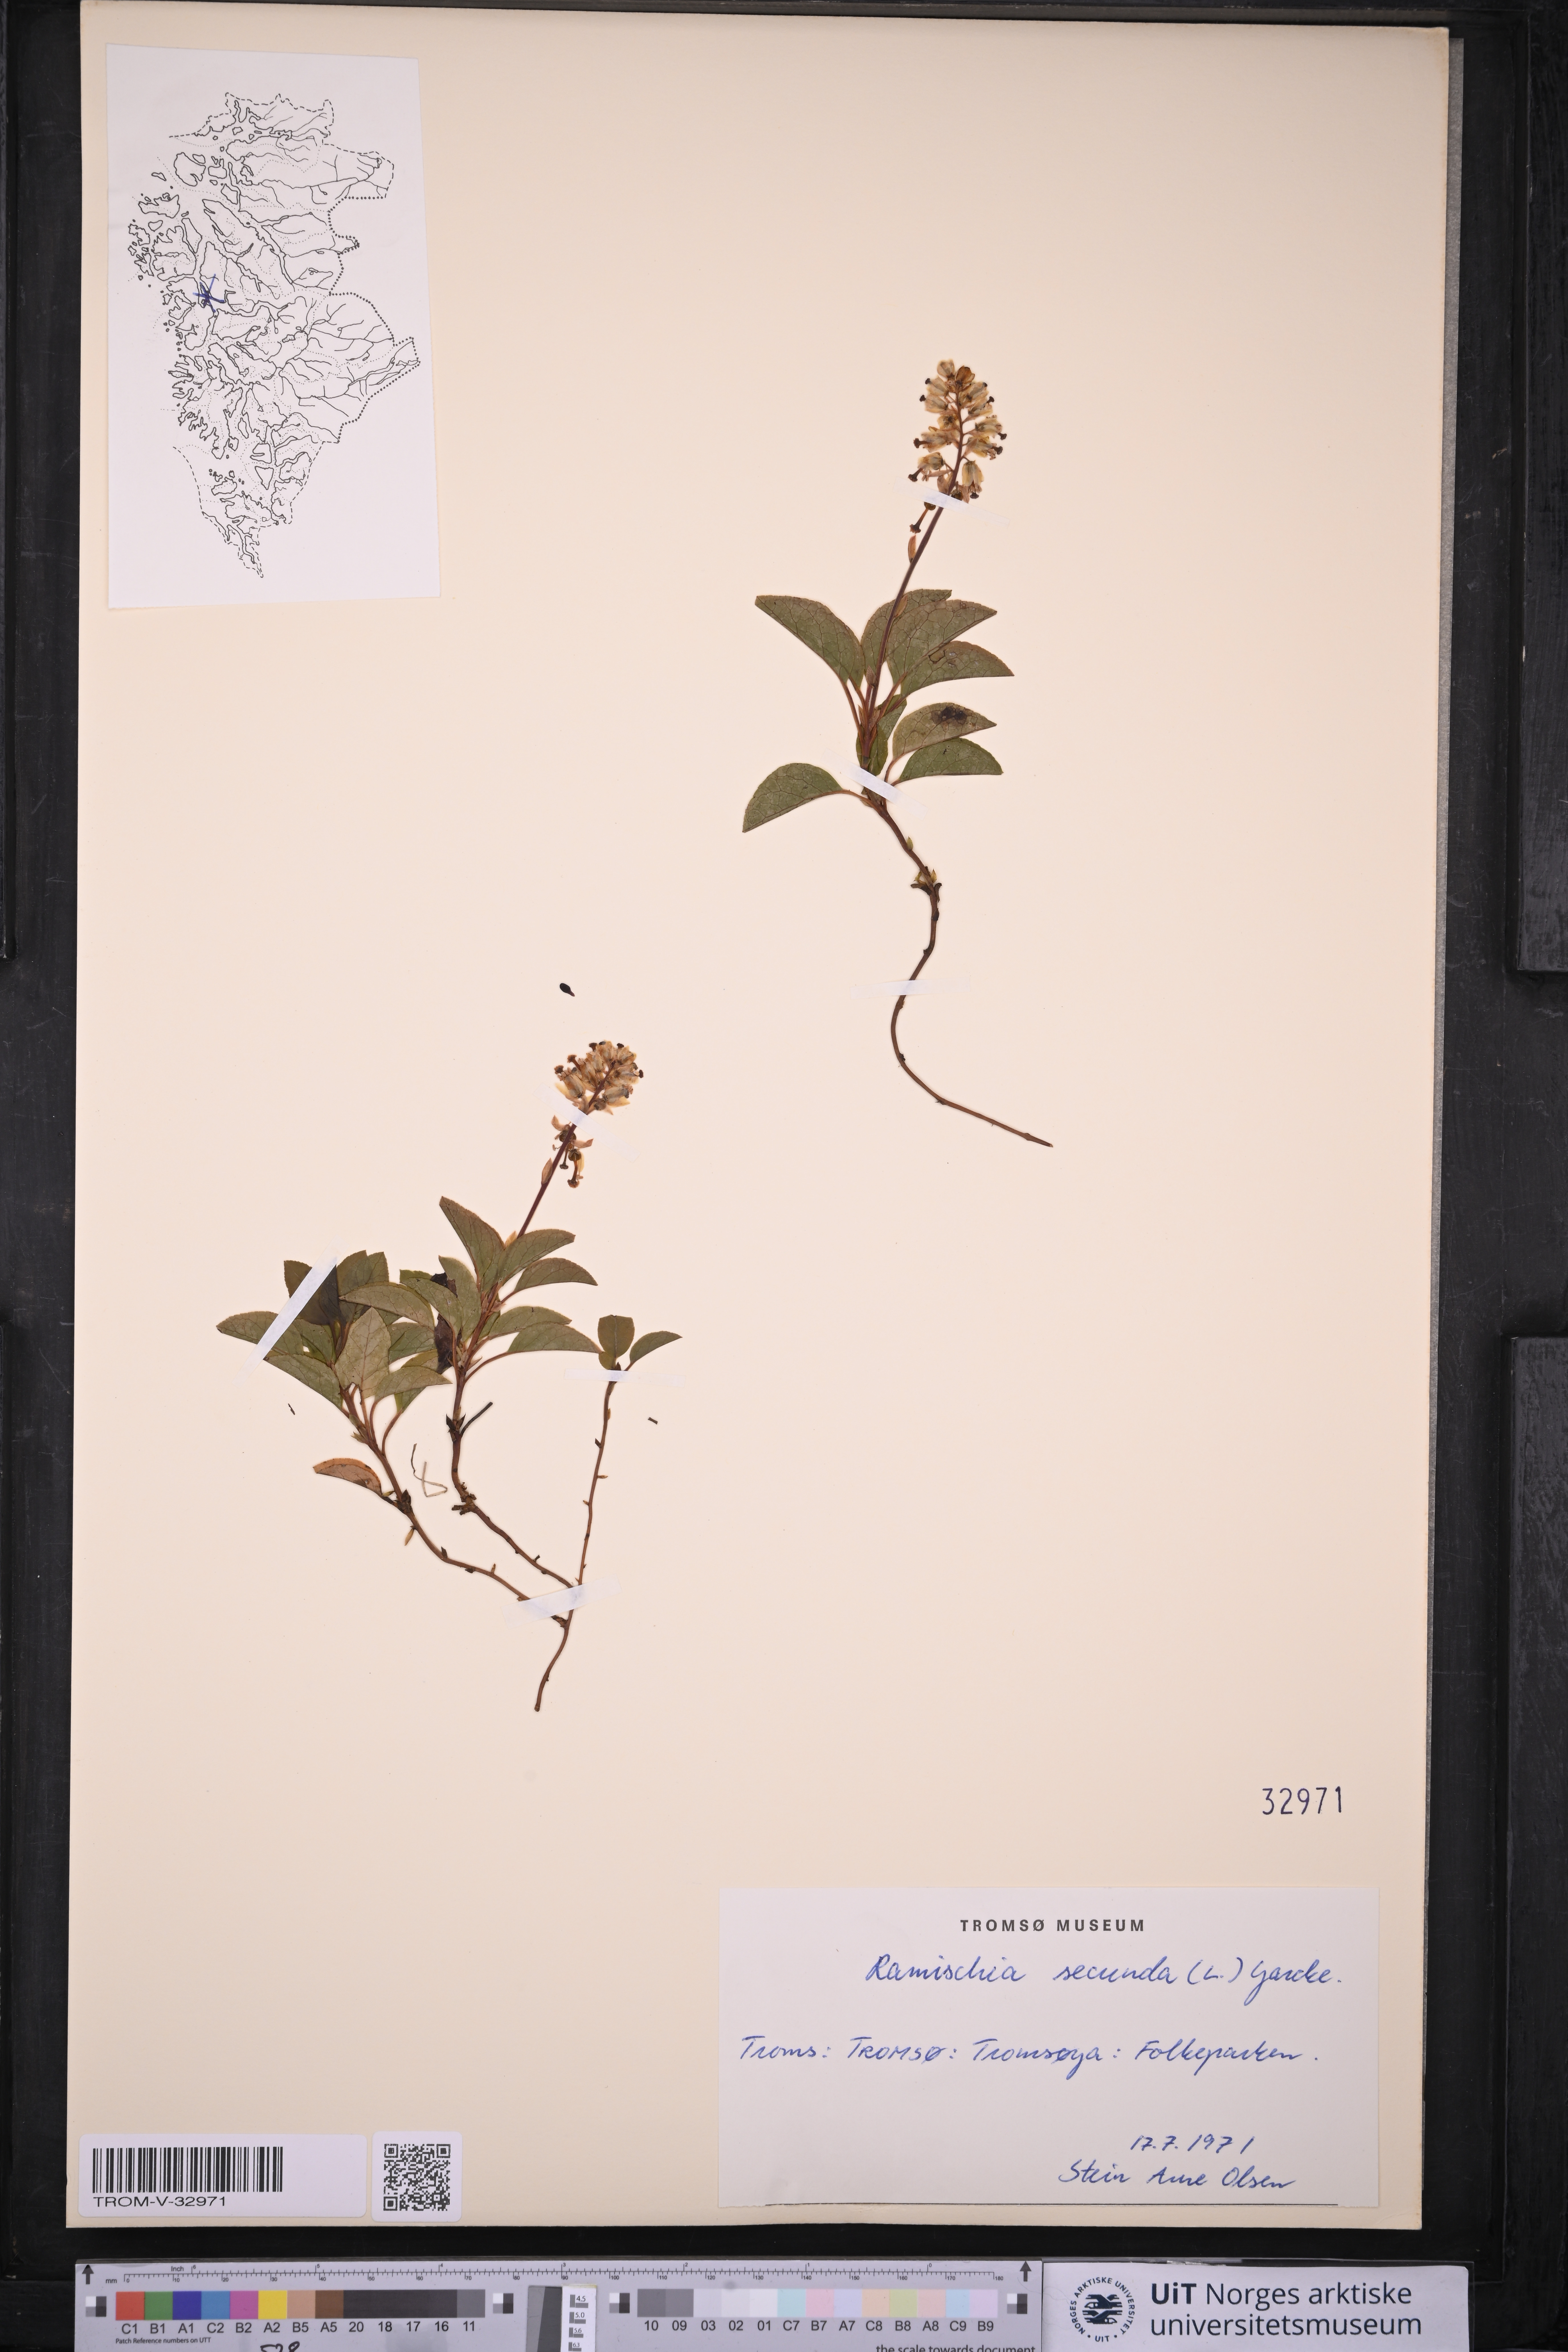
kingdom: Plantae
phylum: Tracheophyta
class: Magnoliopsida
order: Ericales
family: Ericaceae
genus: Orthilia
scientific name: Orthilia secunda
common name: One-sided orthilia
